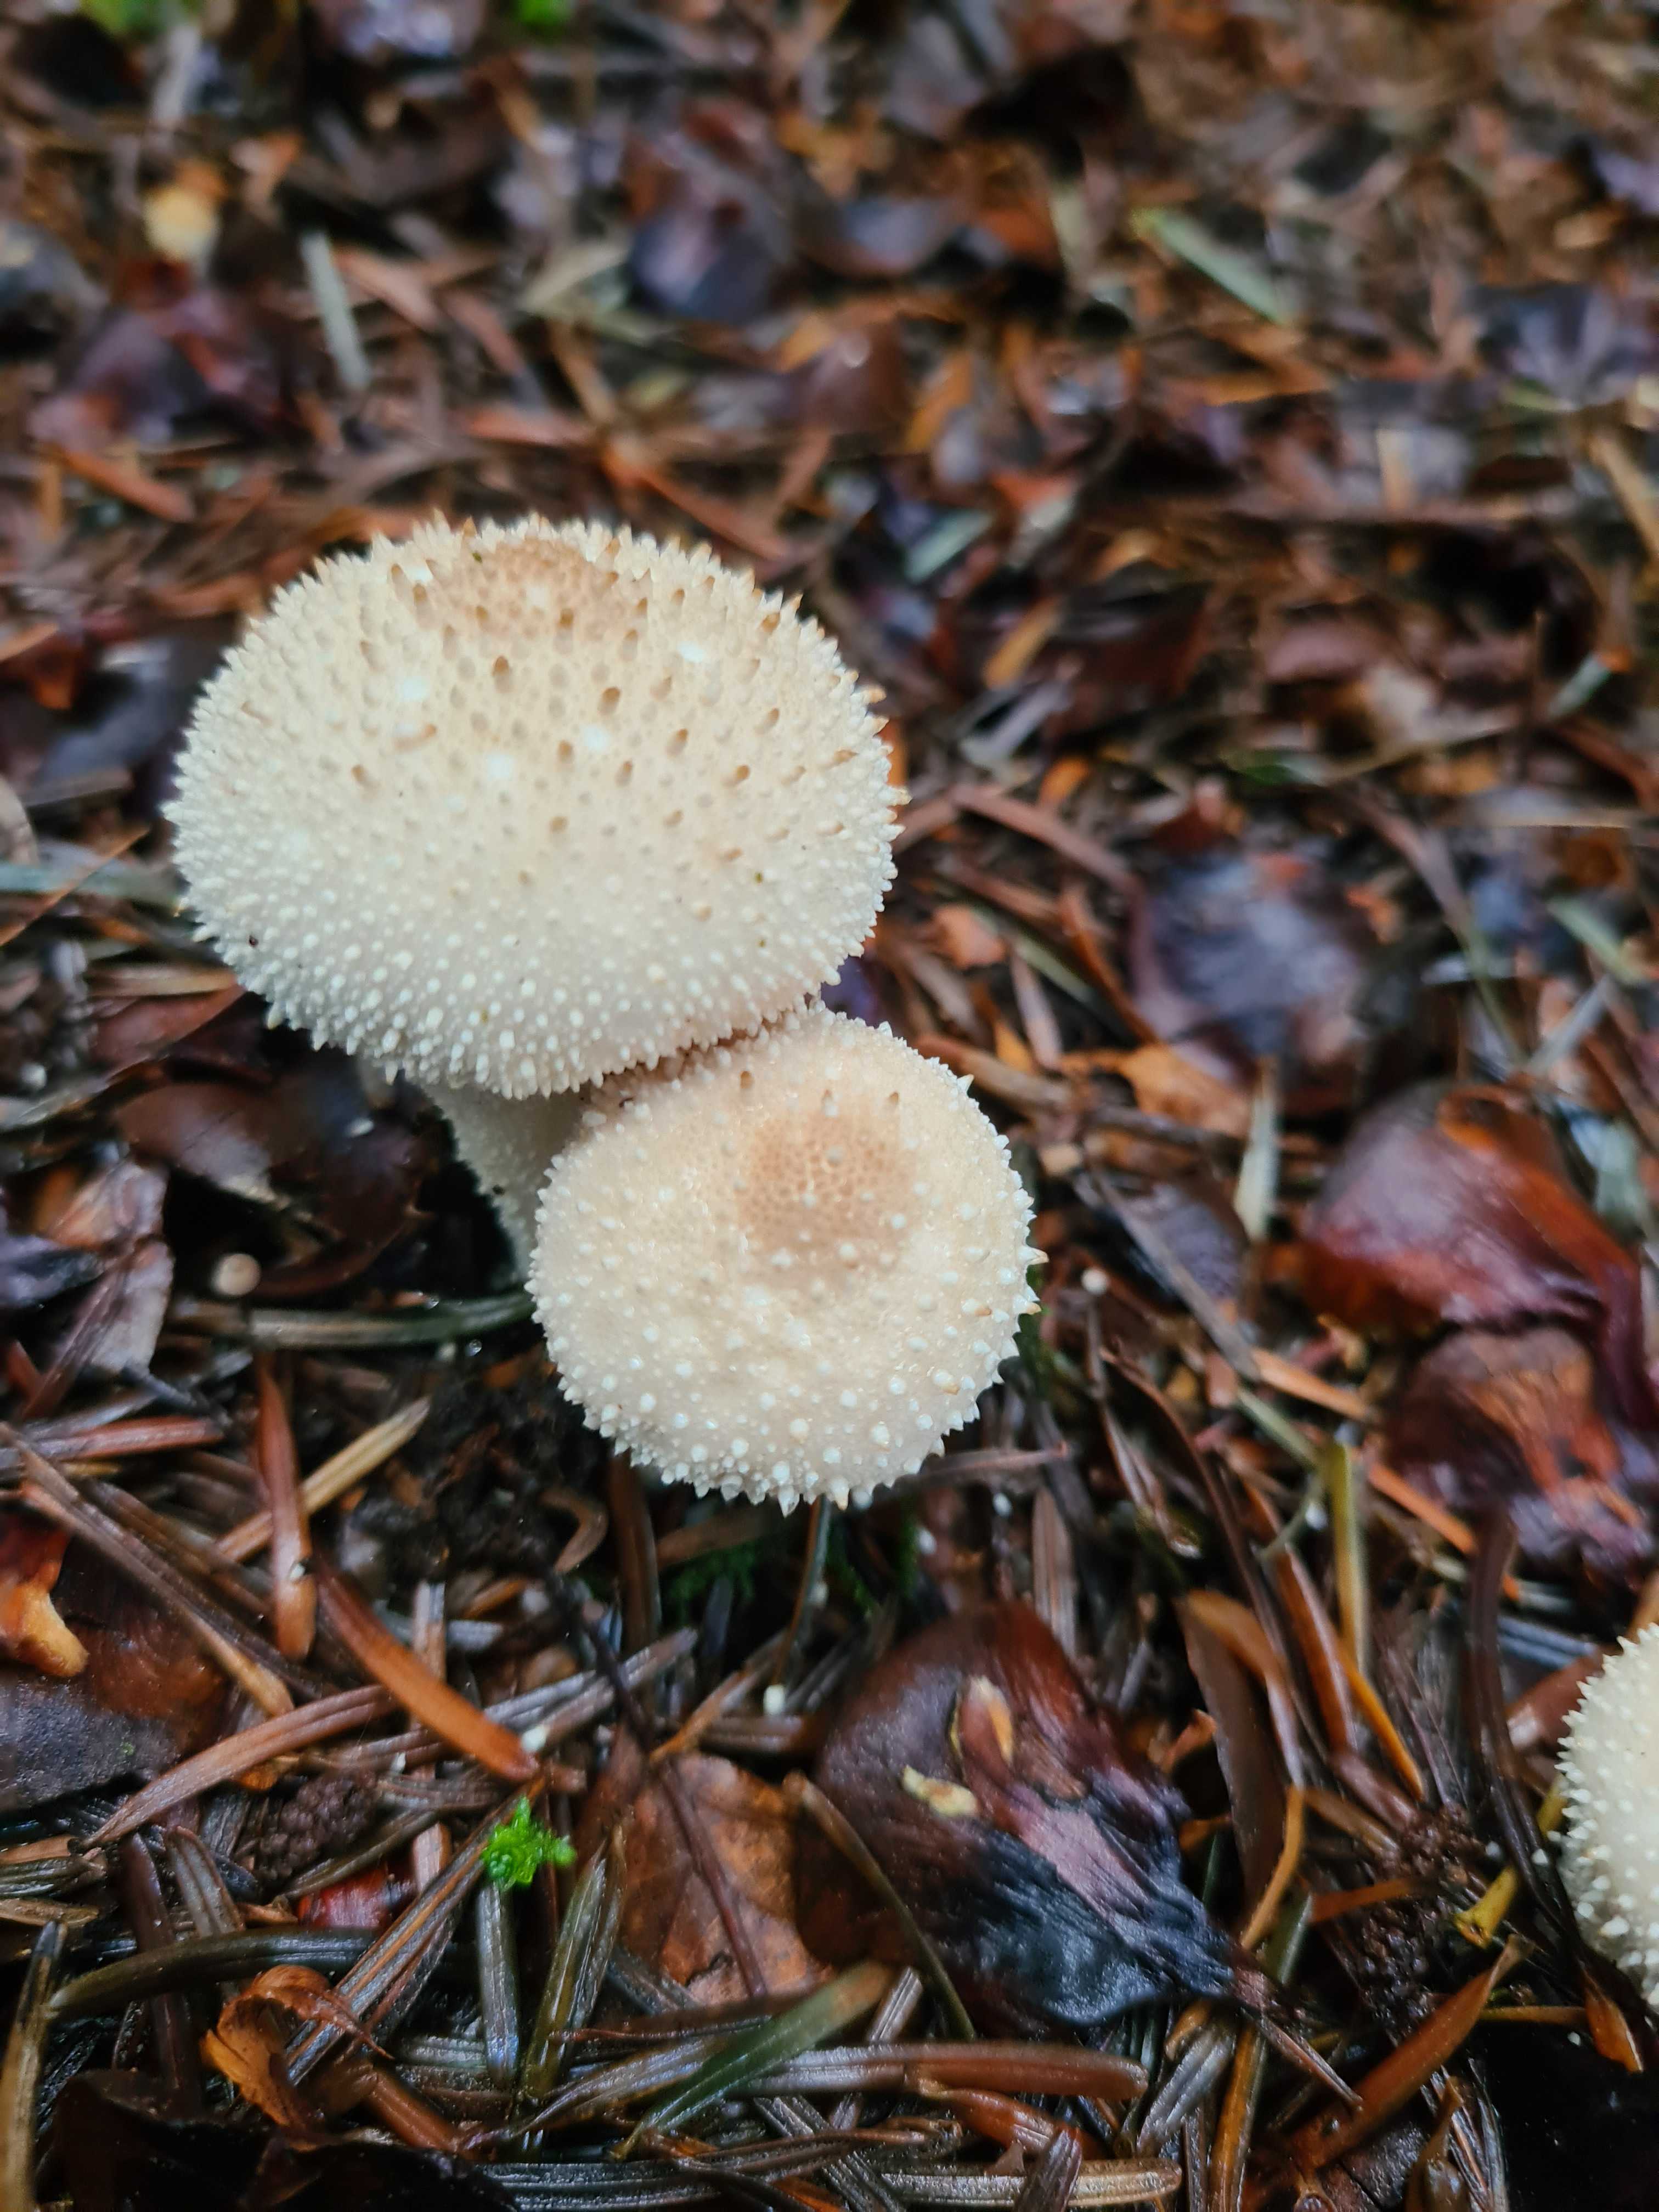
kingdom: Fungi
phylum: Basidiomycota
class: Agaricomycetes
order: Agaricales
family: Lycoperdaceae
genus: Lycoperdon
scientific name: Lycoperdon perlatum
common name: krystal-støvbold
